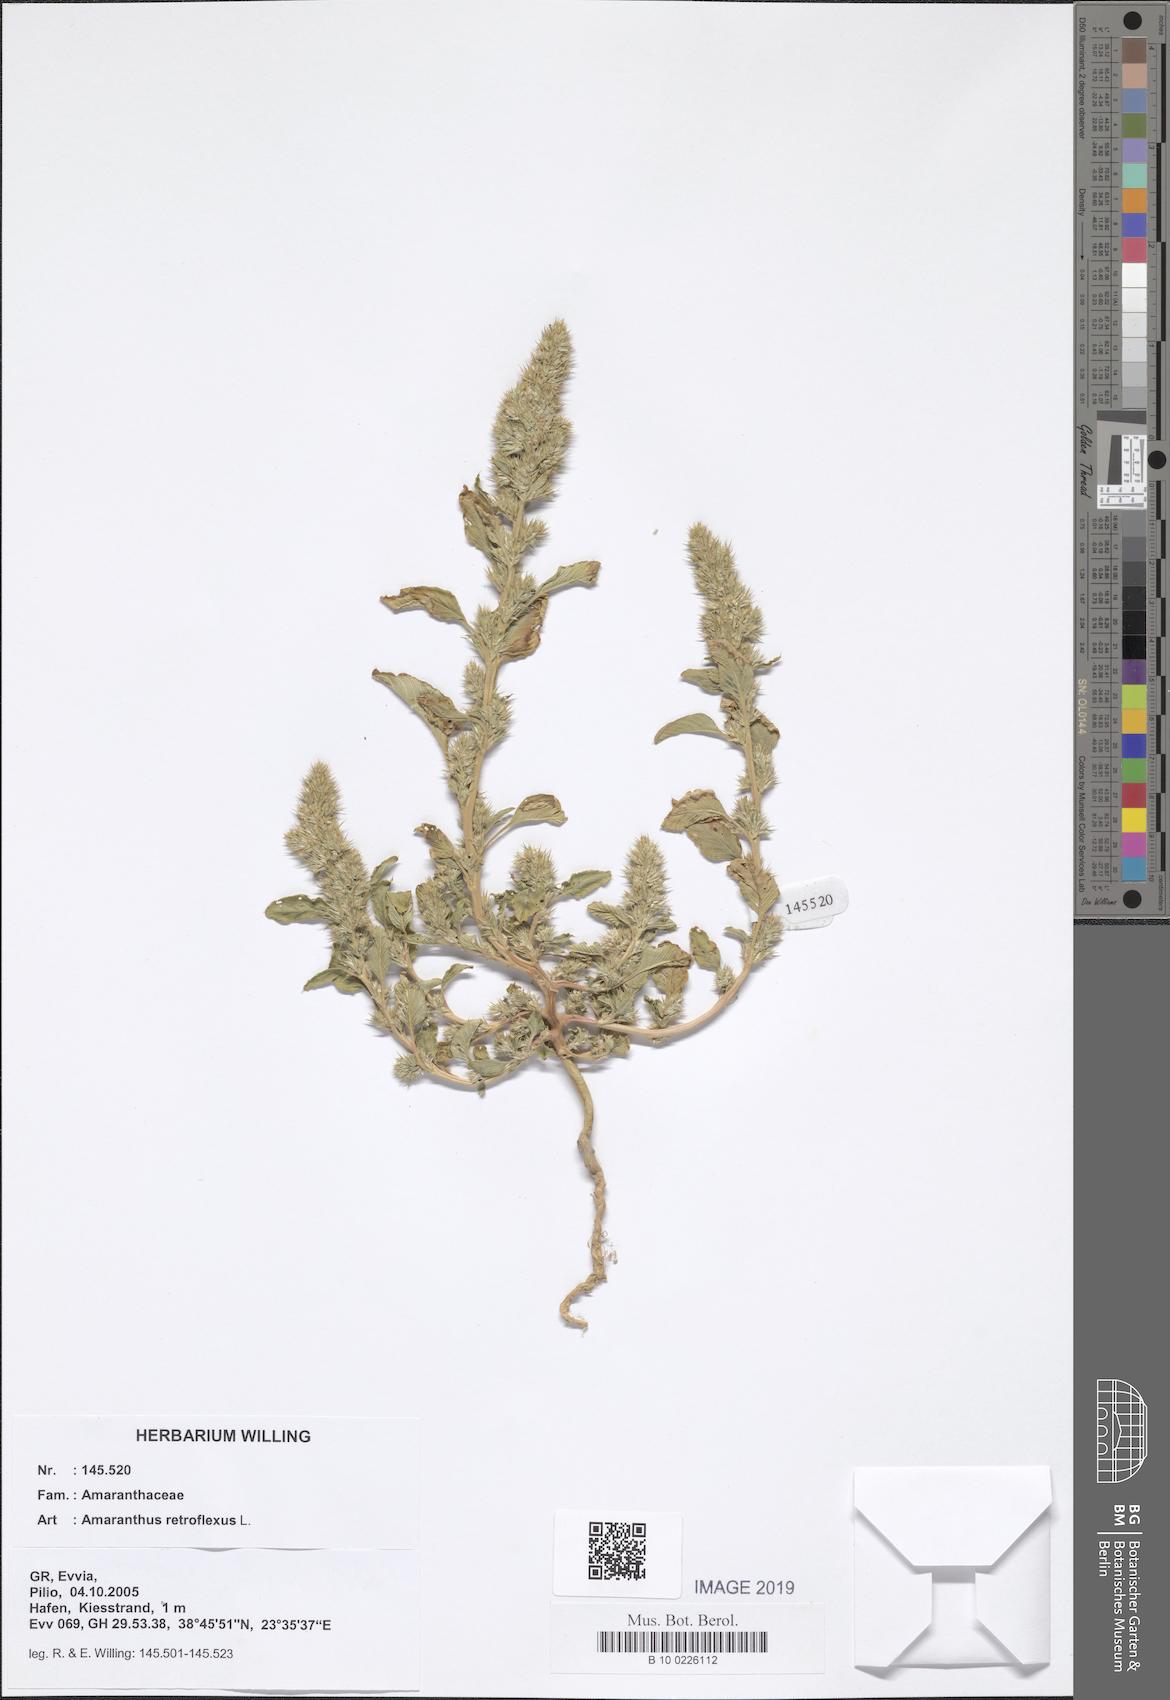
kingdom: Plantae
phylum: Tracheophyta
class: Magnoliopsida
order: Caryophyllales
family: Amaranthaceae
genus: Amaranthus
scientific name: Amaranthus retroflexus
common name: Redroot amaranth
